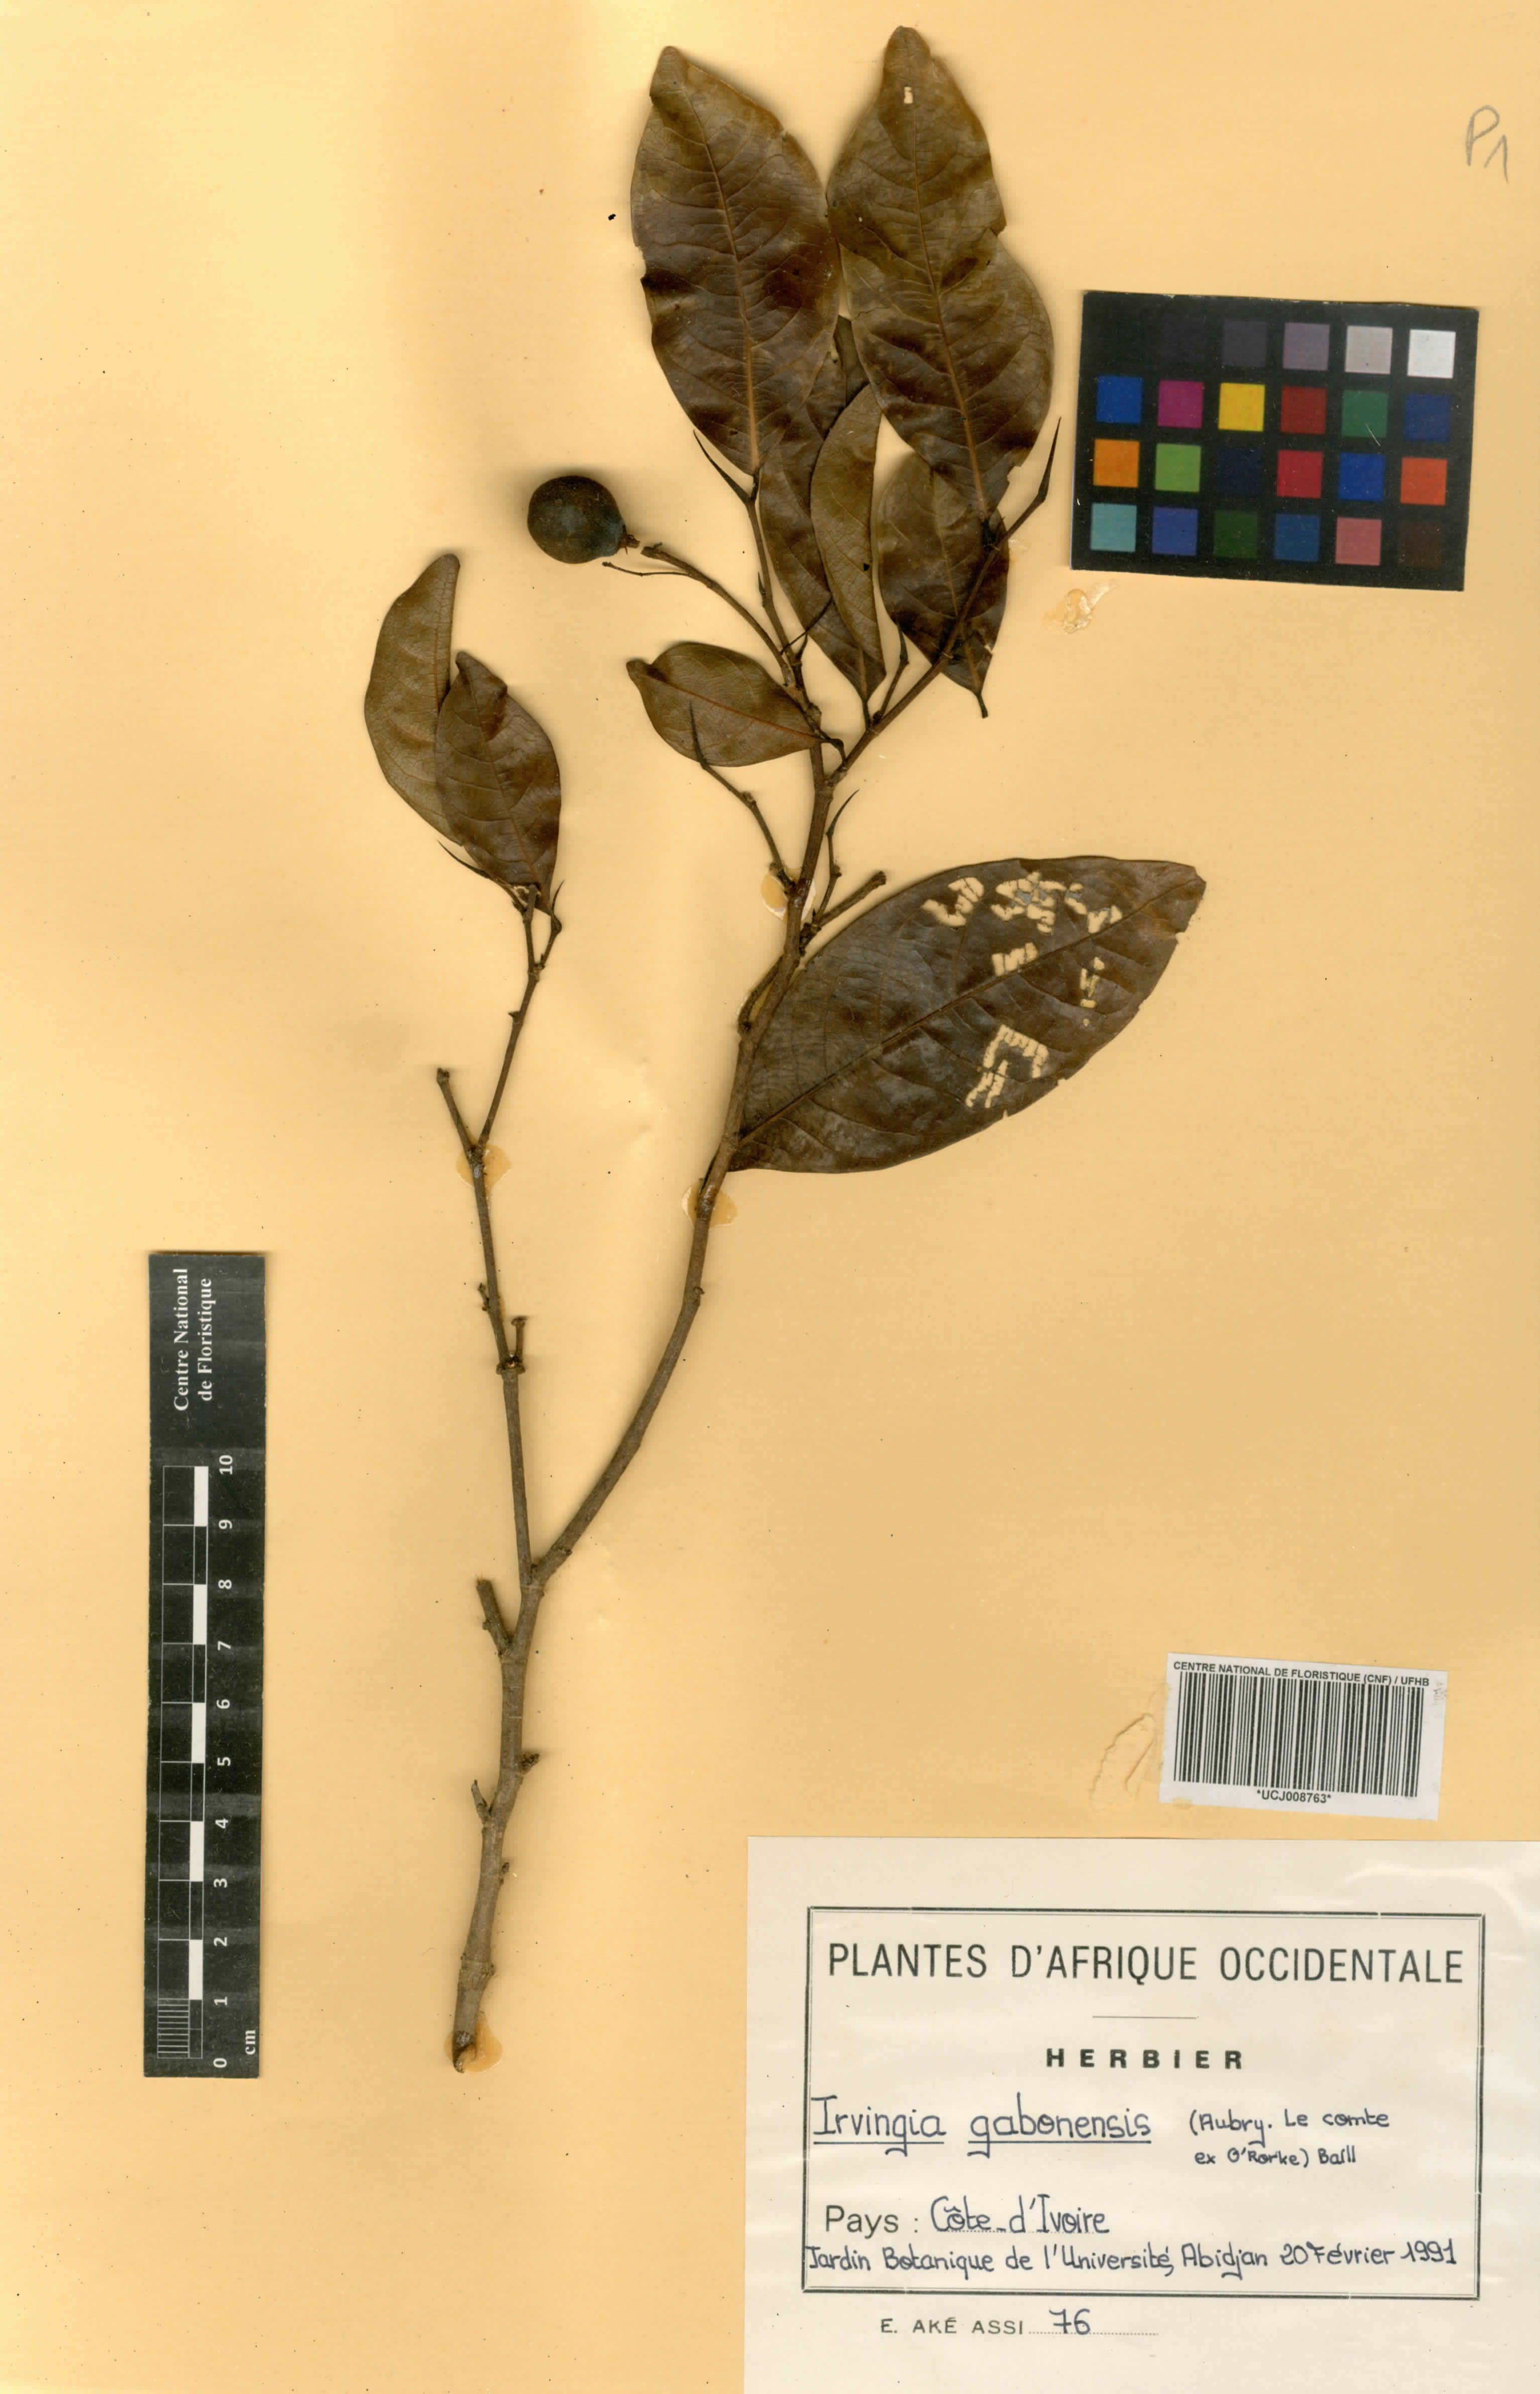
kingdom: Plantae
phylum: Tracheophyta
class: Magnoliopsida
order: Malpighiales
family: Irvingiaceae
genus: Irvingia
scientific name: Irvingia gabonensis
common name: Rainy season bush-mango
